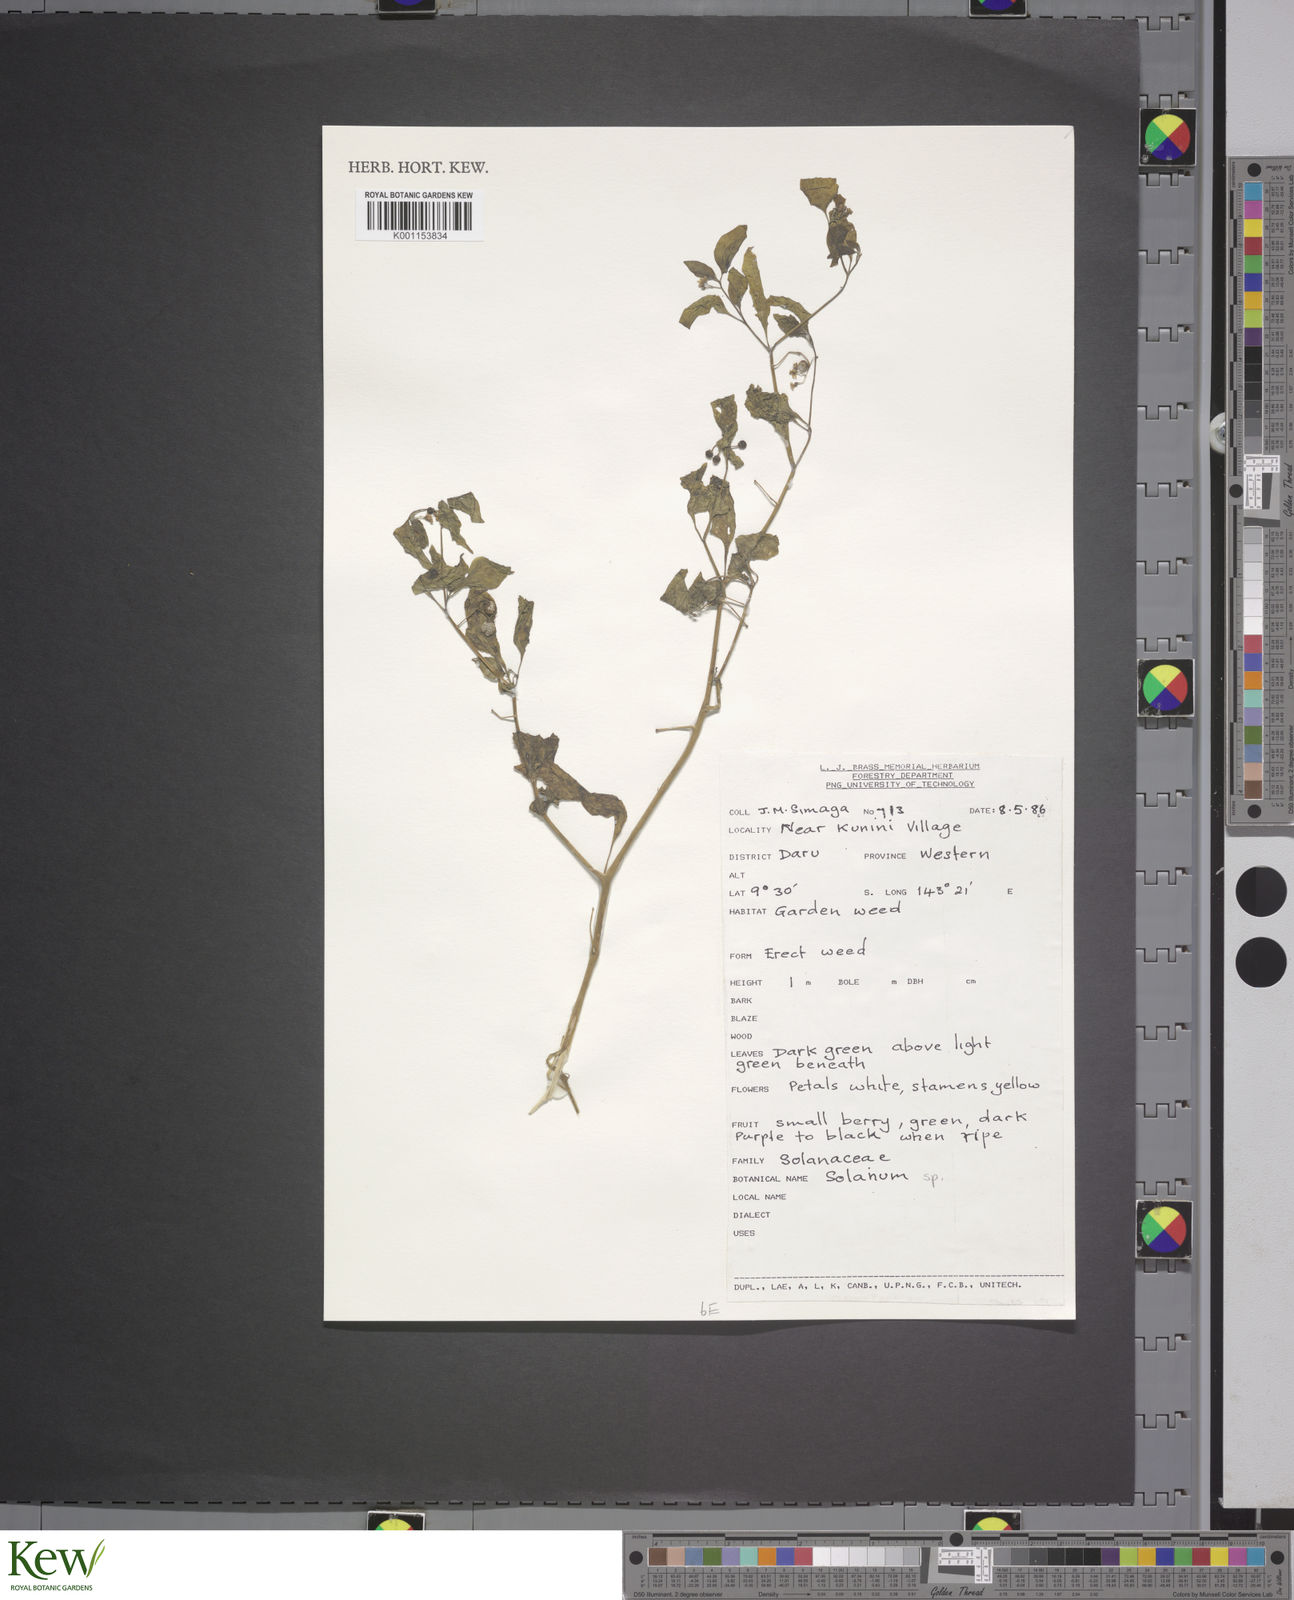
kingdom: Plantae
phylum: Tracheophyta
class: Magnoliopsida
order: Solanales
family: Solanaceae
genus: Solanum
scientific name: Solanum
